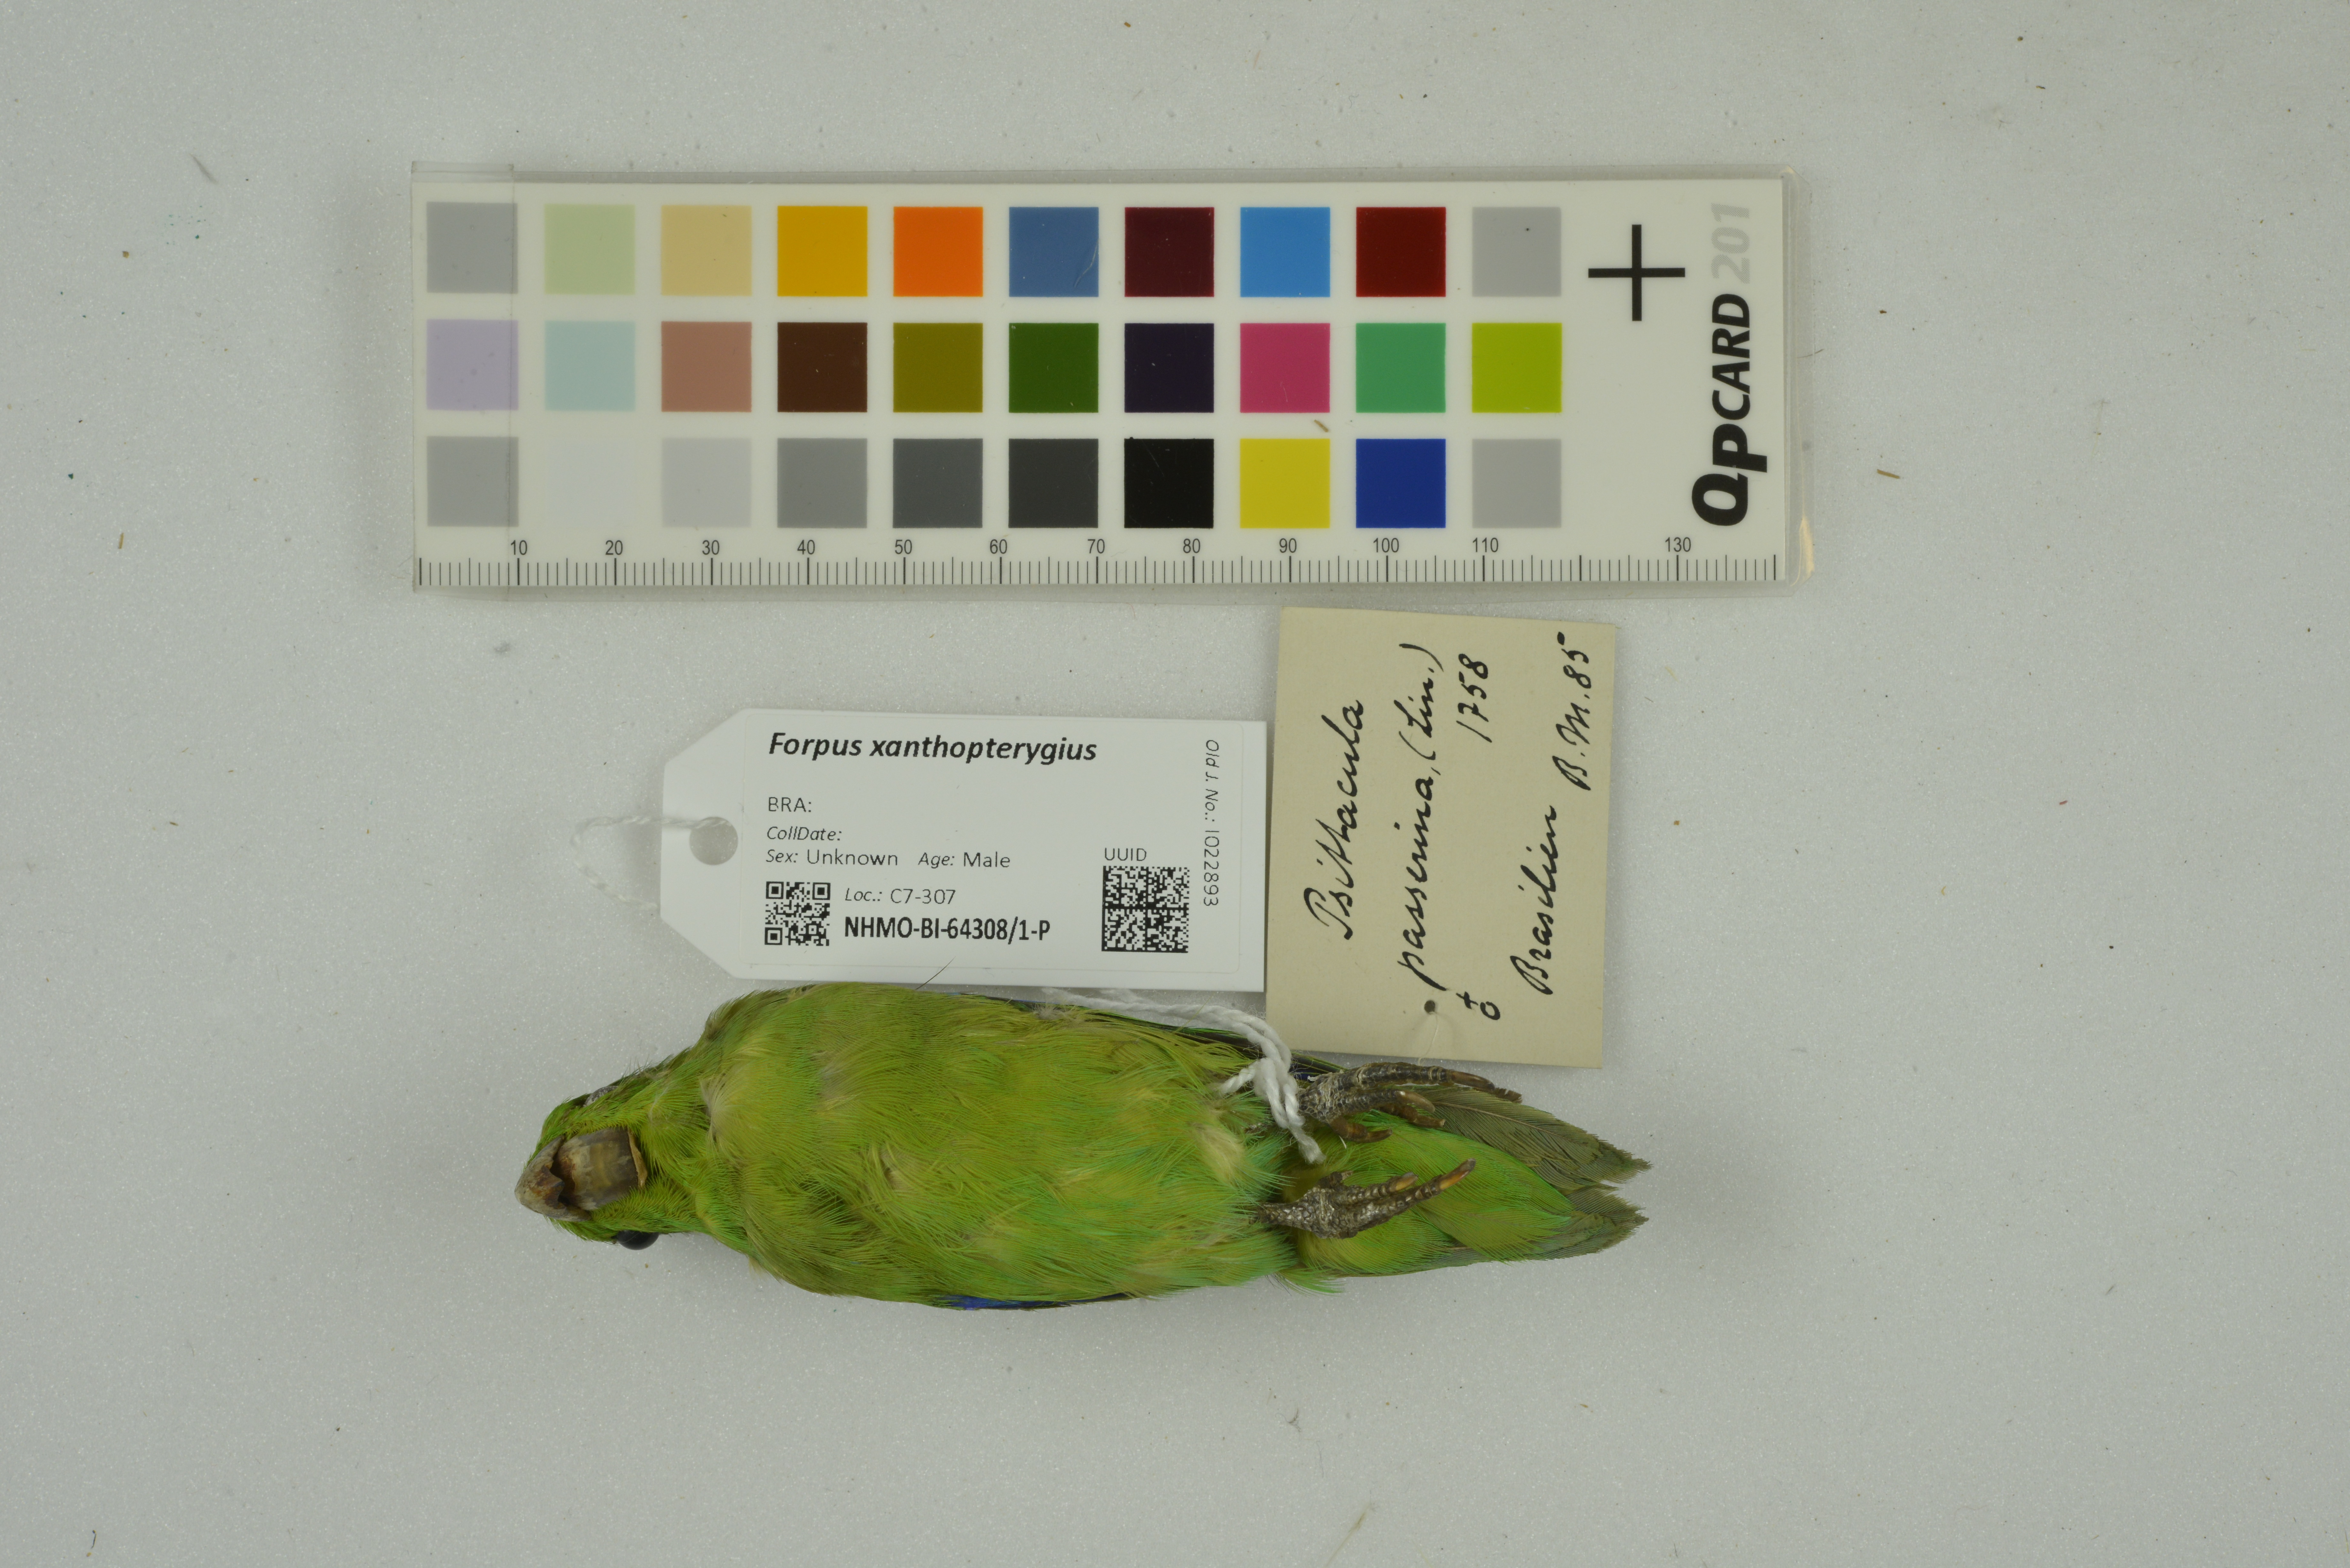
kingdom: Animalia
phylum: Chordata
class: Aves
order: Psittaciformes
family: Psittacidae
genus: Forpus
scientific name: Forpus xanthopterygius
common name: Blue-winged parrotlet
